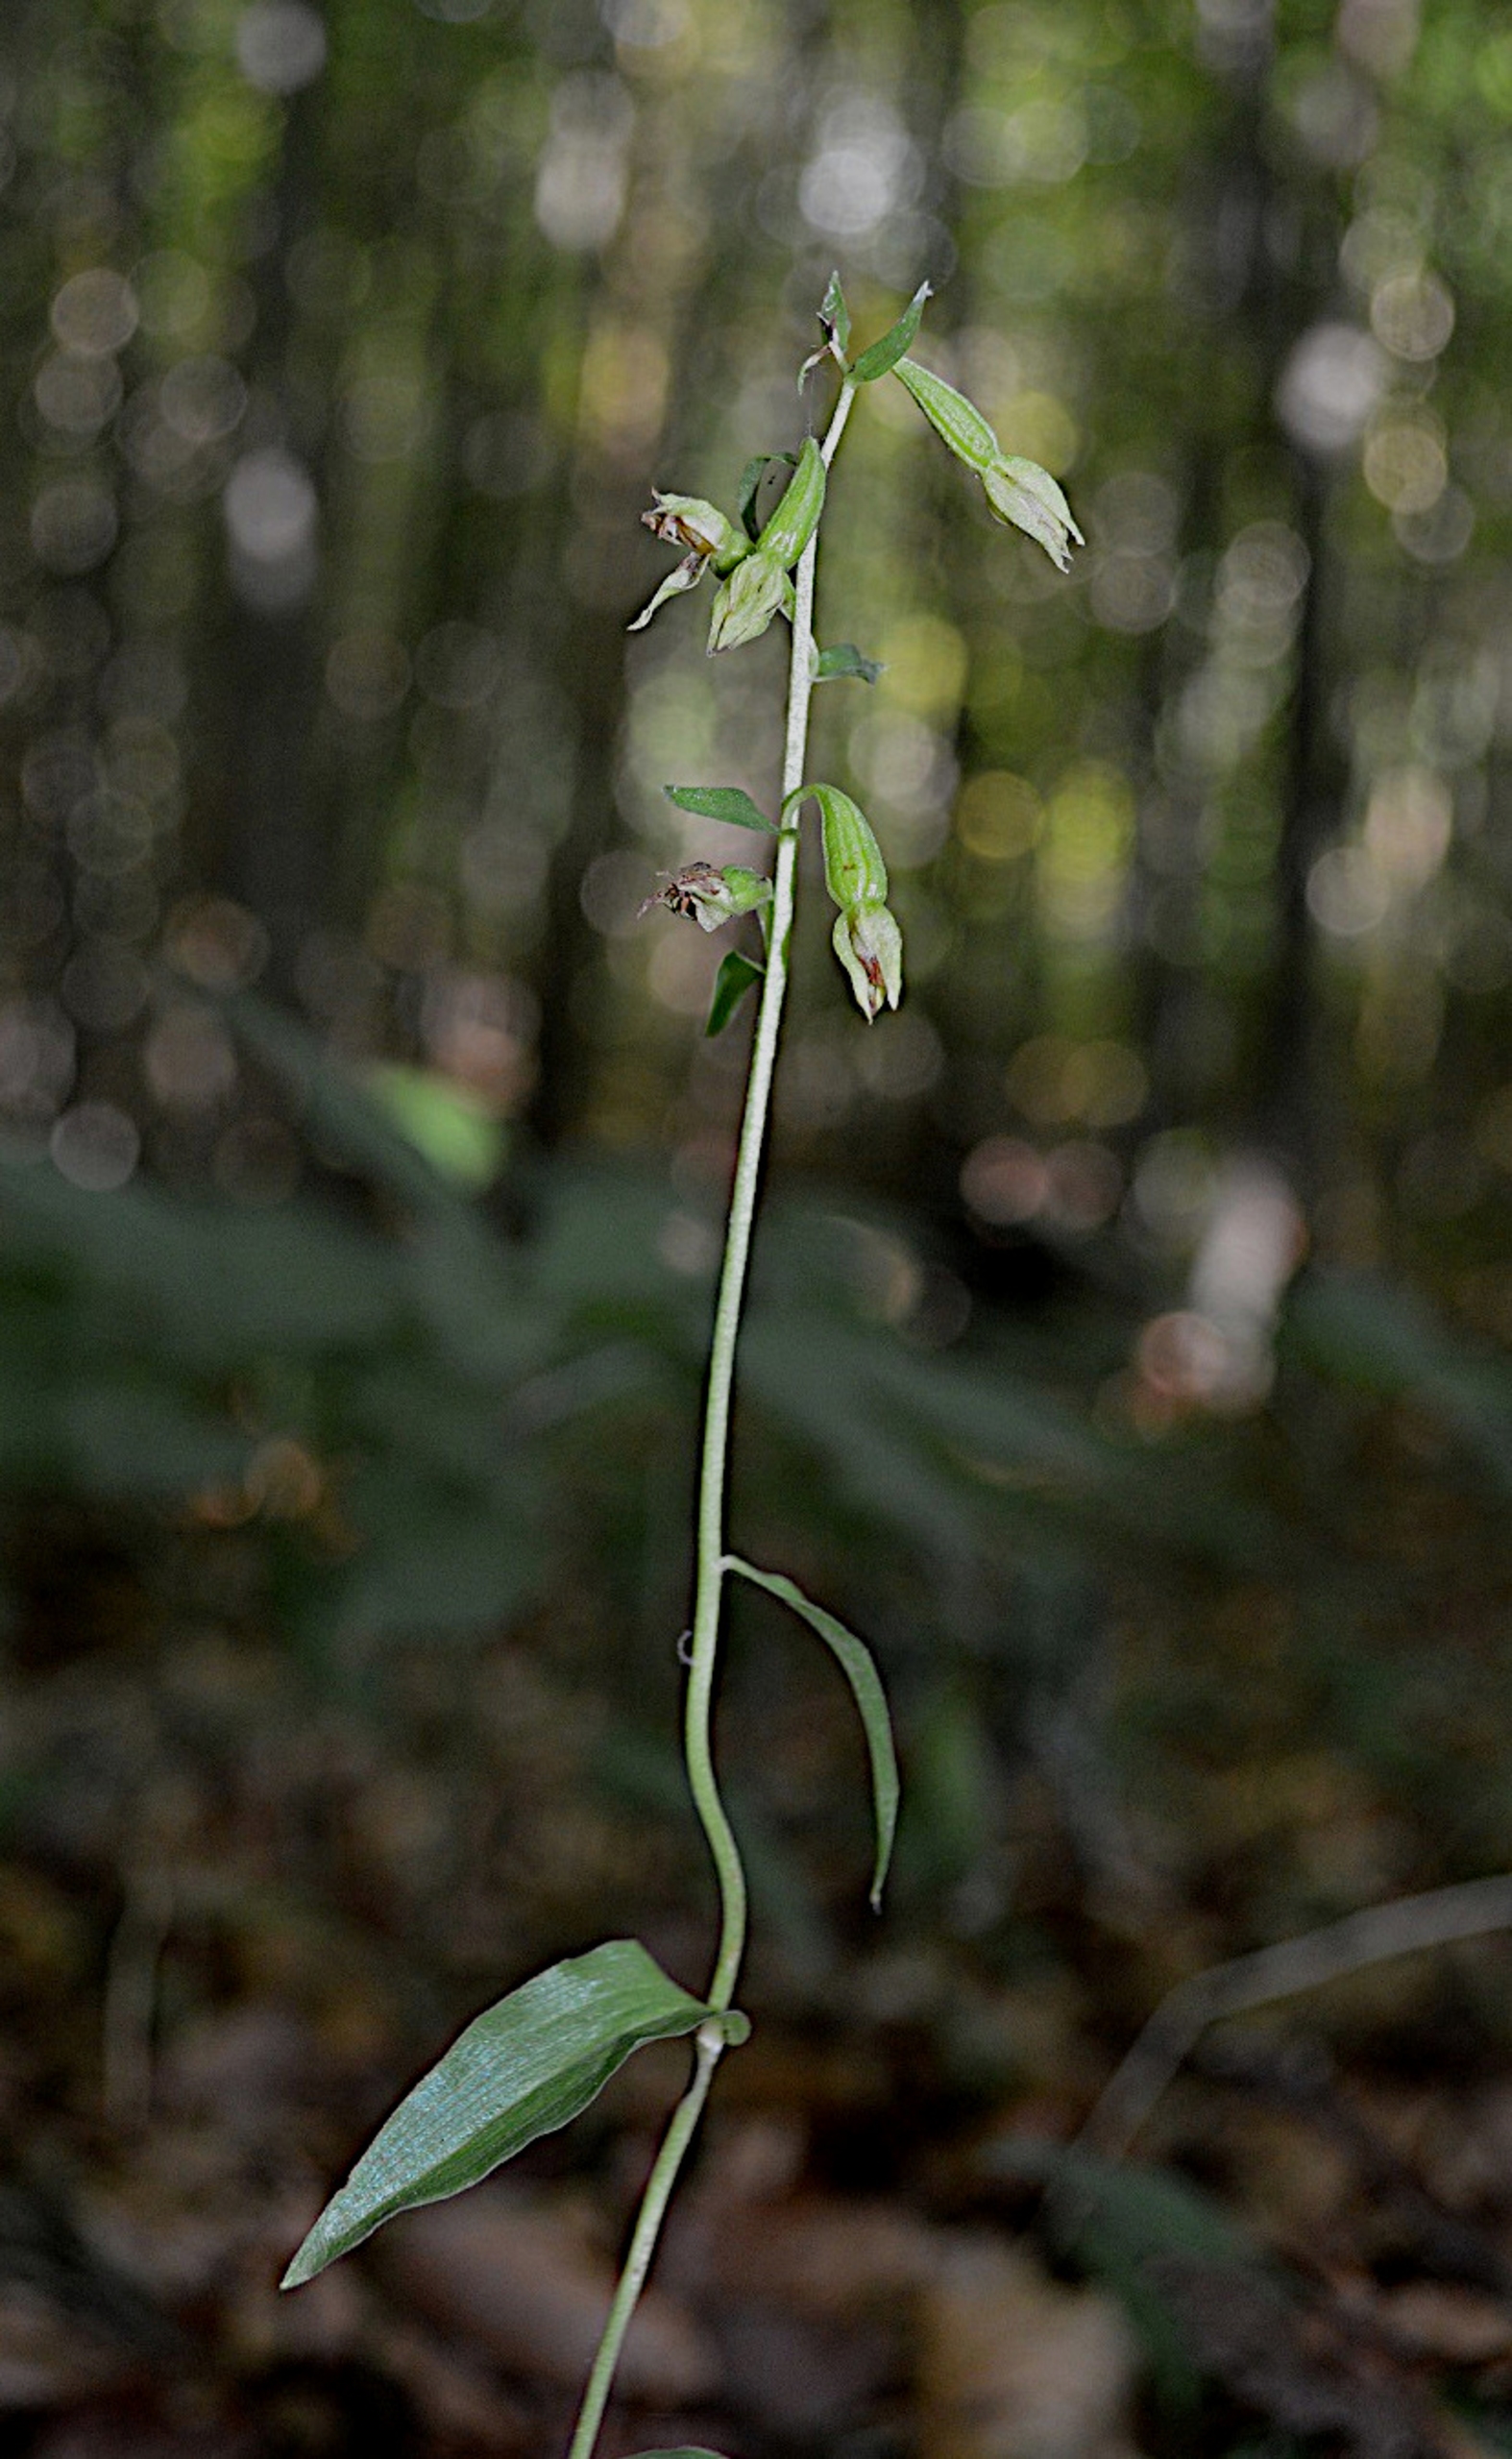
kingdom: Plantae
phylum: Tracheophyta
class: Liliopsida
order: Asparagales
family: Orchidaceae
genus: Epipactis
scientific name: Epipactis phyllanthes
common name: Nikkende hullæbe
